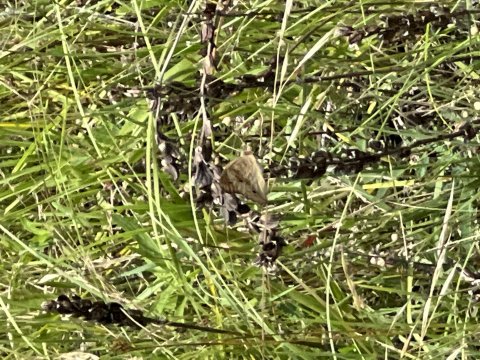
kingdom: Animalia
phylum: Arthropoda
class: Insecta
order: Lepidoptera
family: Nymphalidae
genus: Junonia
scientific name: Junonia coenia
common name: Common Buckeye
